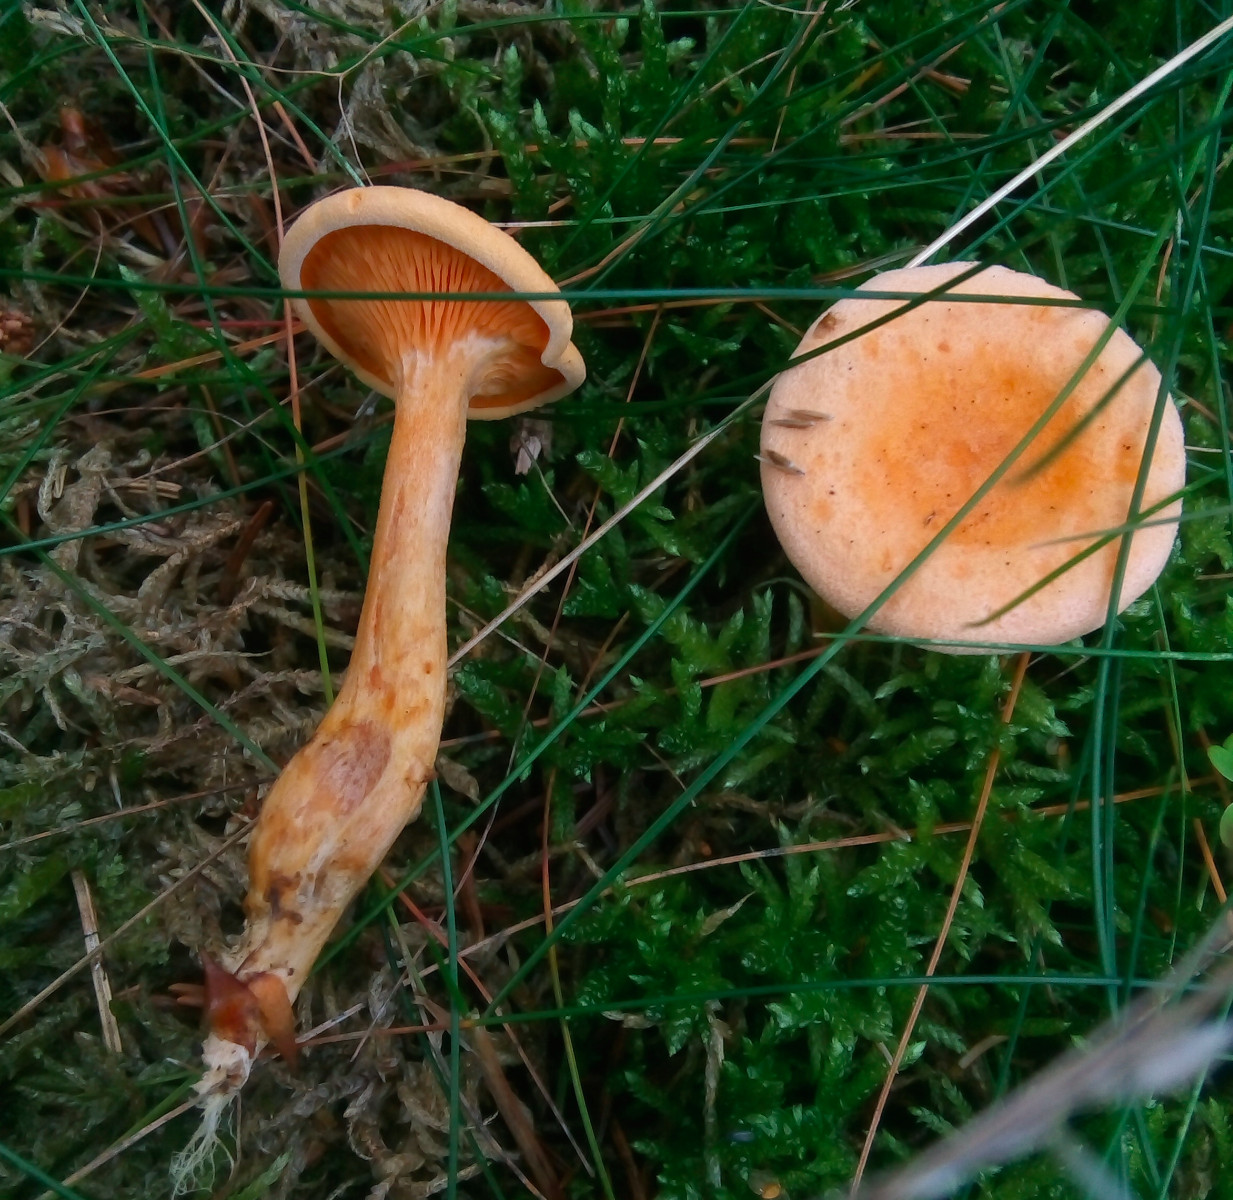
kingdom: Fungi
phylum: Basidiomycota
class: Agaricomycetes
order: Boletales
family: Hygrophoropsidaceae
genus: Hygrophoropsis
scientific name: Hygrophoropsis aurantiaca
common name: almindelig orangekantarel
